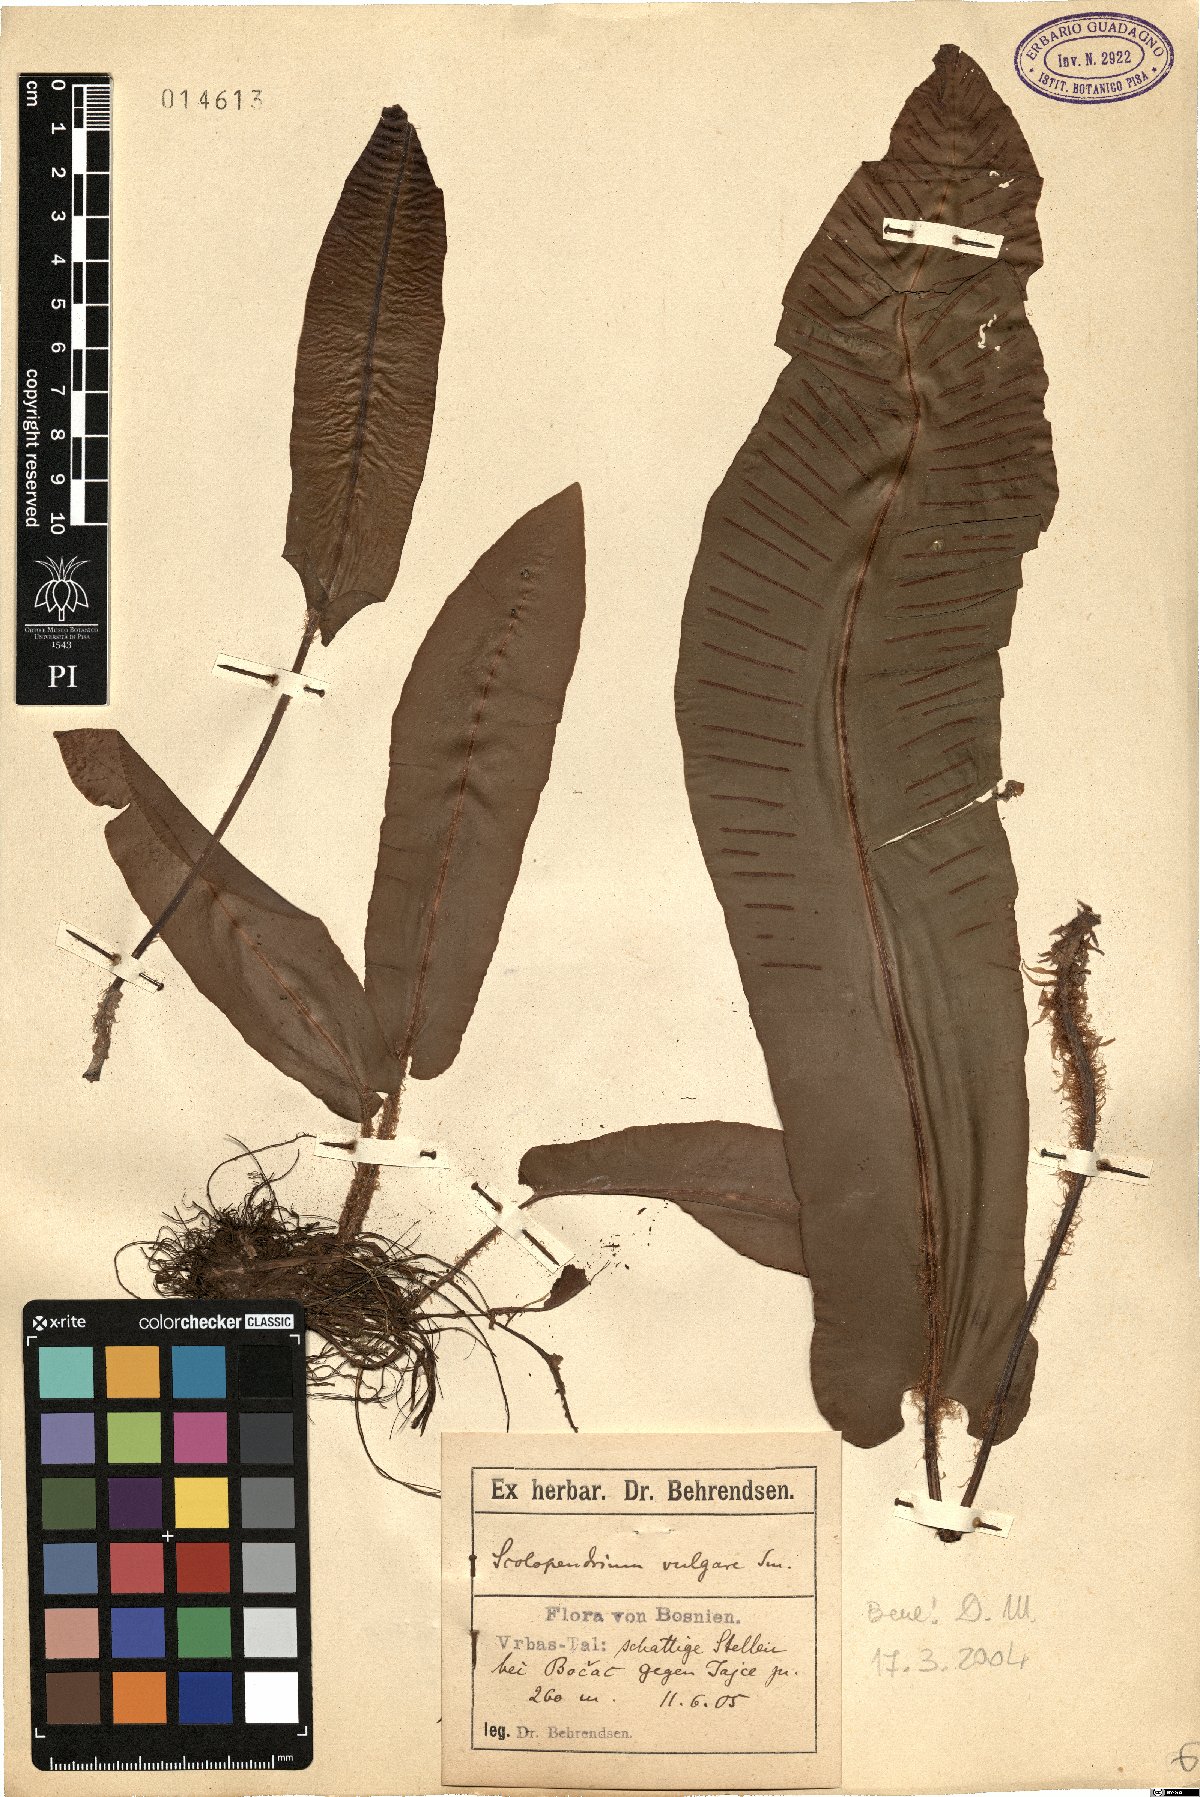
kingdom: Plantae
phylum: Tracheophyta
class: Polypodiopsida
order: Polypodiales
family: Aspleniaceae
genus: Asplenium
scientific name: Asplenium scolopendrium
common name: Hart's-tongue fern
